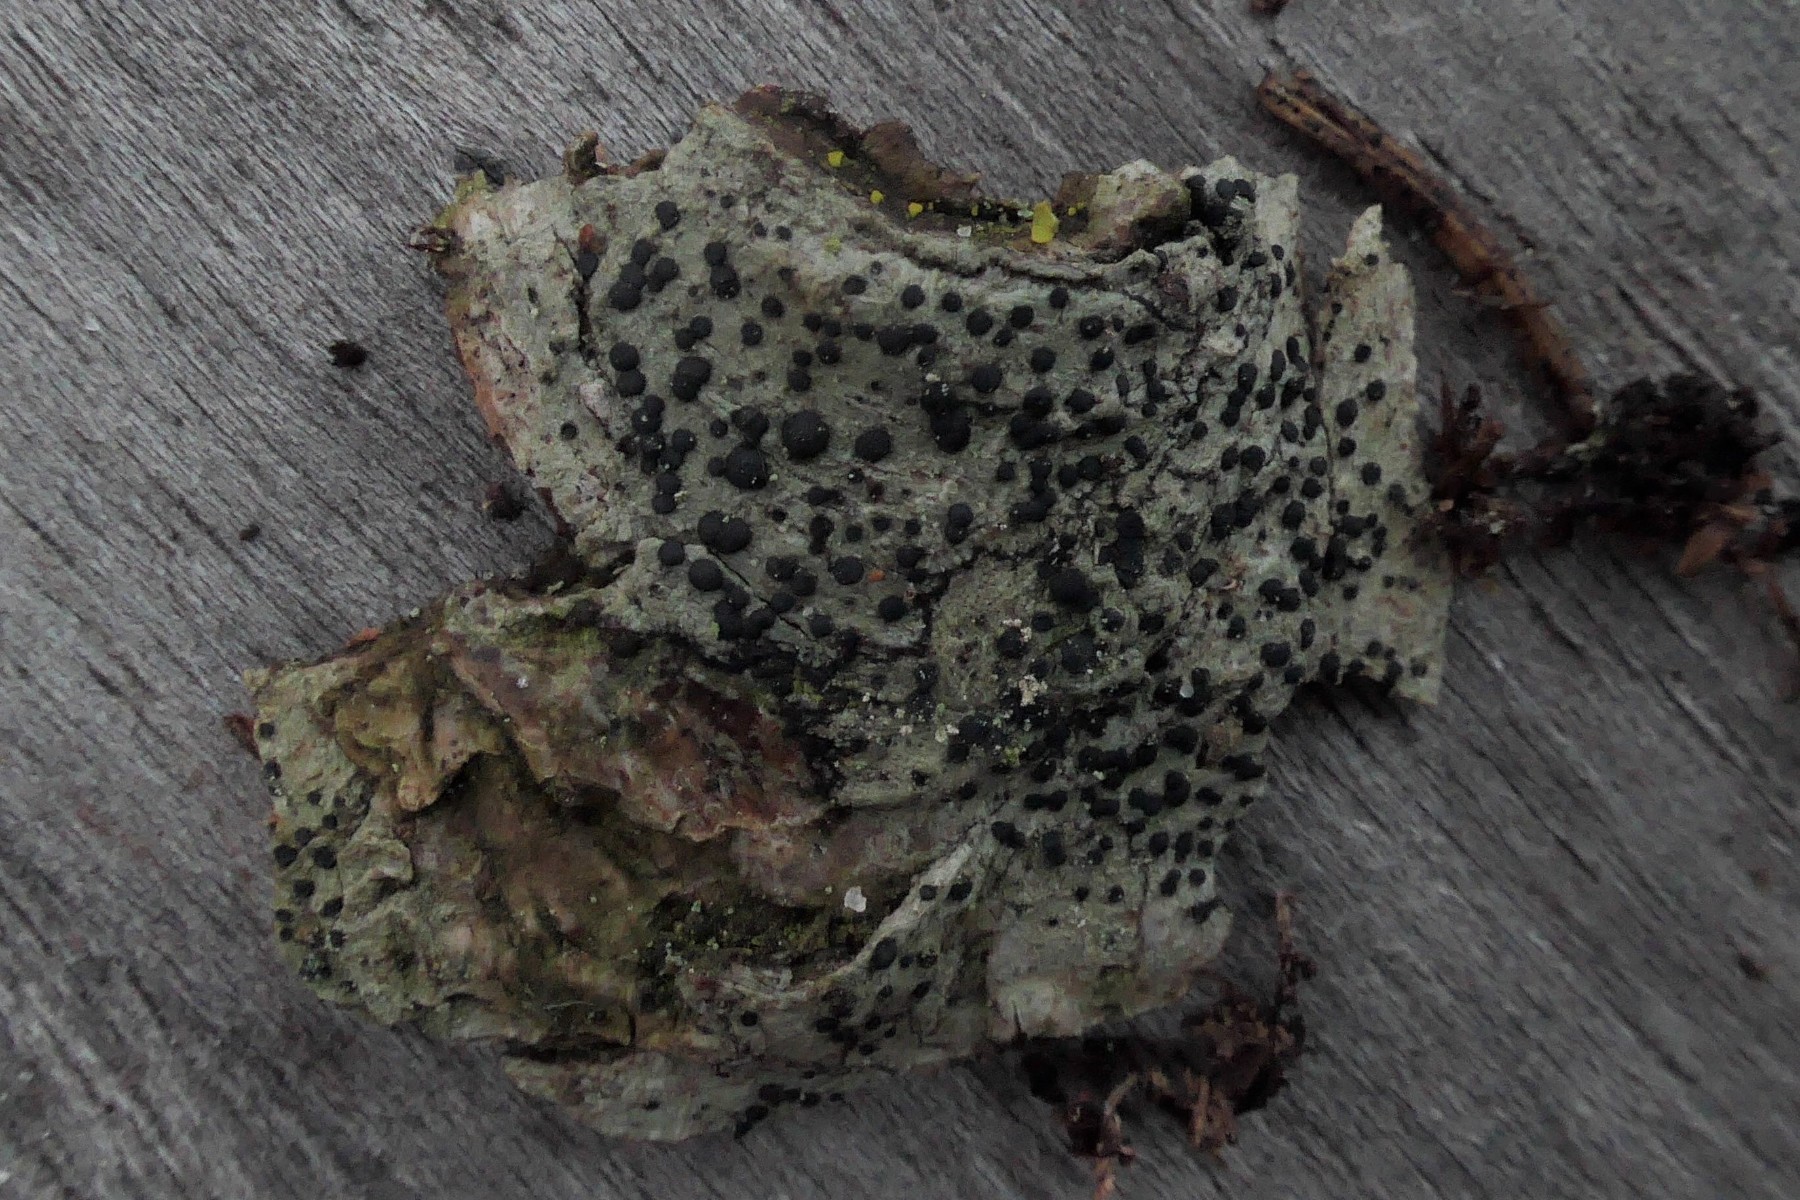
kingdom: Fungi
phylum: Ascomycota
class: Lecanoromycetes
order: Lecanorales
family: Lecanoraceae
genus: Lecidella
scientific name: Lecidella elaeochroma
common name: grågrøn skivelav
